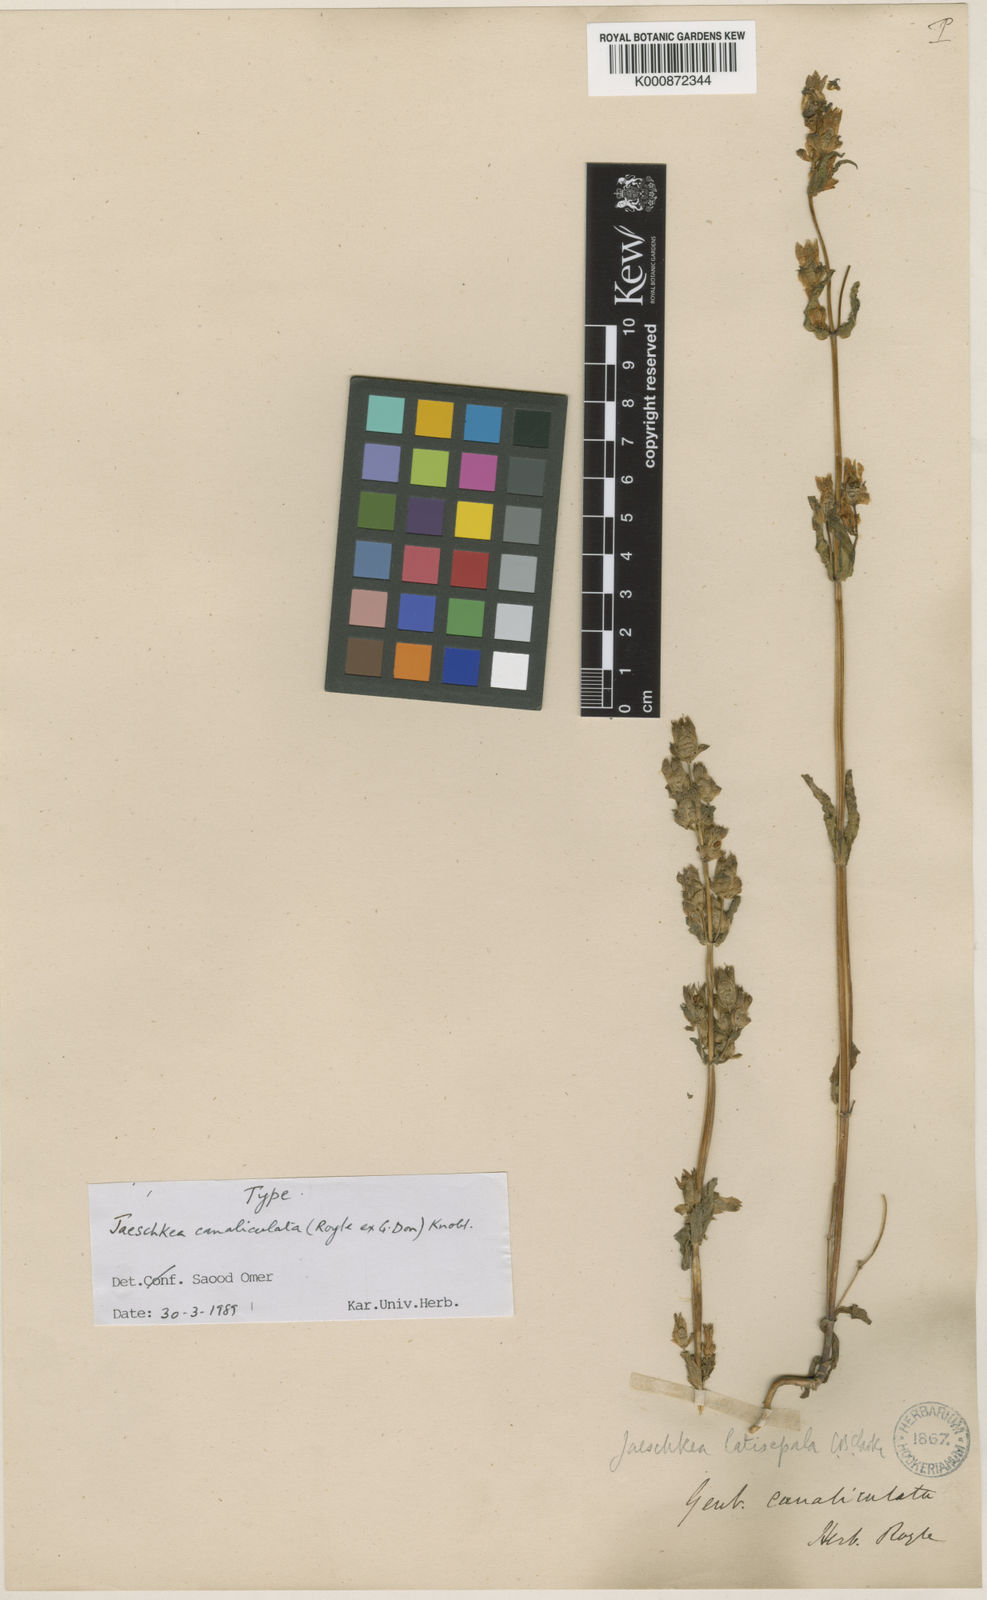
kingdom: Plantae
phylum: Tracheophyta
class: Magnoliopsida
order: Gentianales
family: Gentianaceae
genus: Jaeschkea
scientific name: Jaeschkea canaliculata
